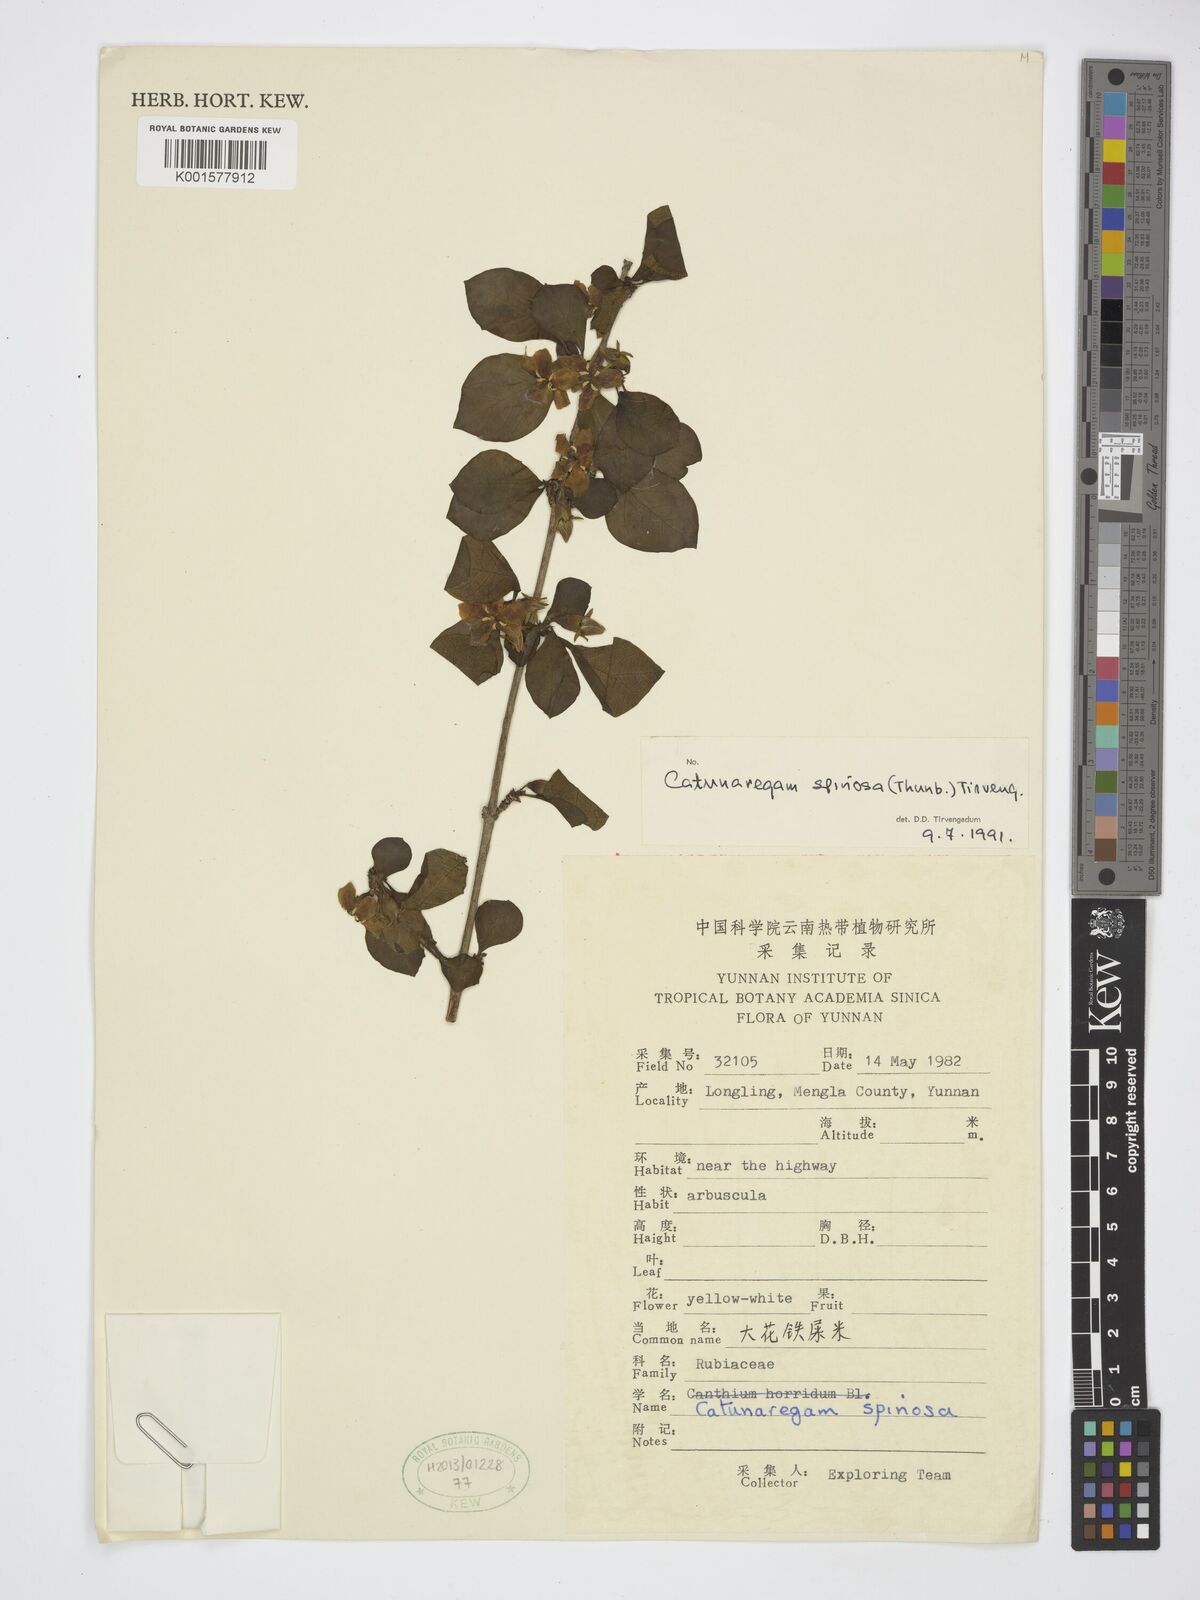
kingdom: Plantae
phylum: Tracheophyta
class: Magnoliopsida
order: Gentianales
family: Rubiaceae
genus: Catunaregam
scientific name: Catunaregam spinosa
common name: Emetic-nut
